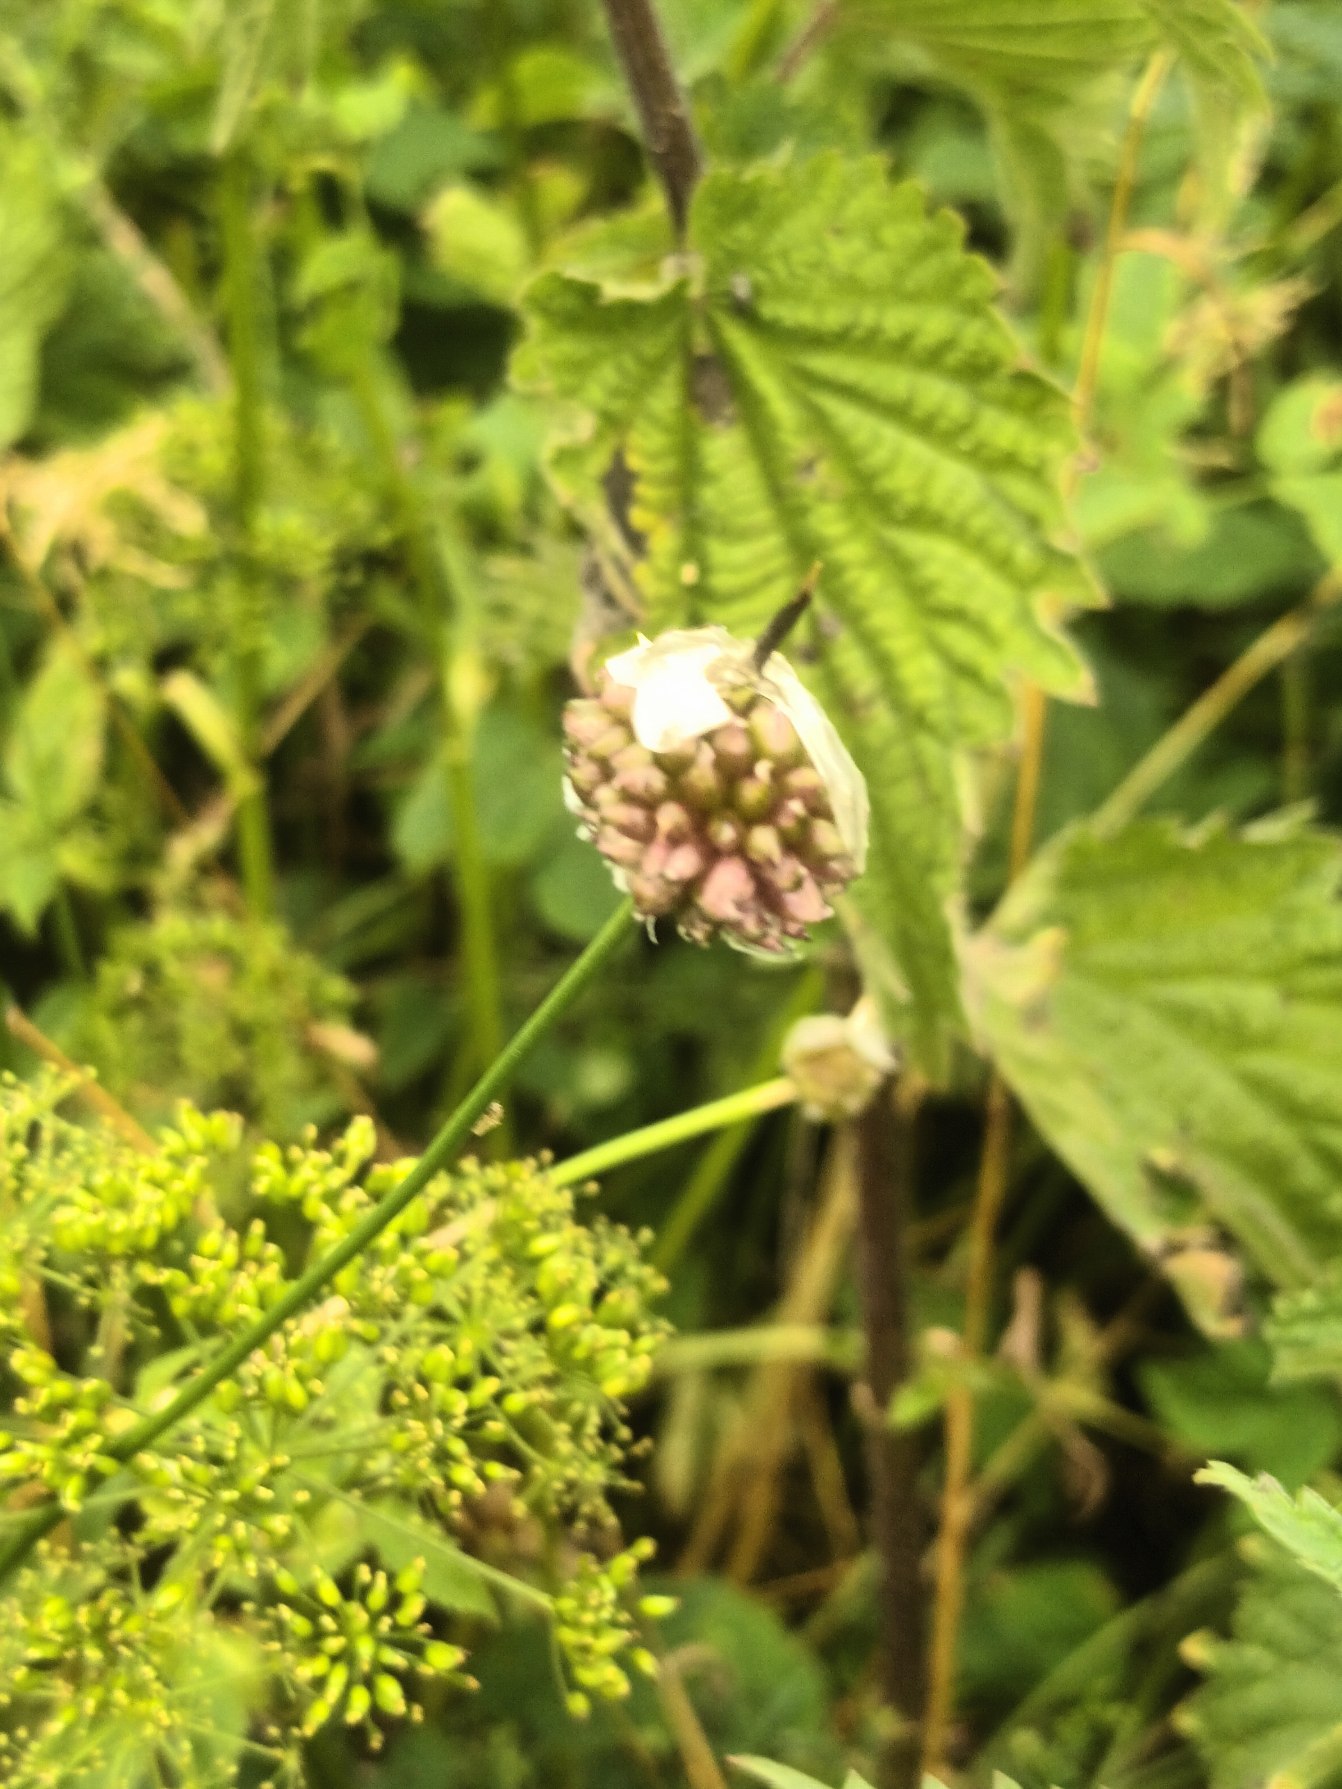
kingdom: Plantae
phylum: Tracheophyta
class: Liliopsida
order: Asparagales
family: Amaryllidaceae
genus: Allium
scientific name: Allium vineale
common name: Sand-løg
